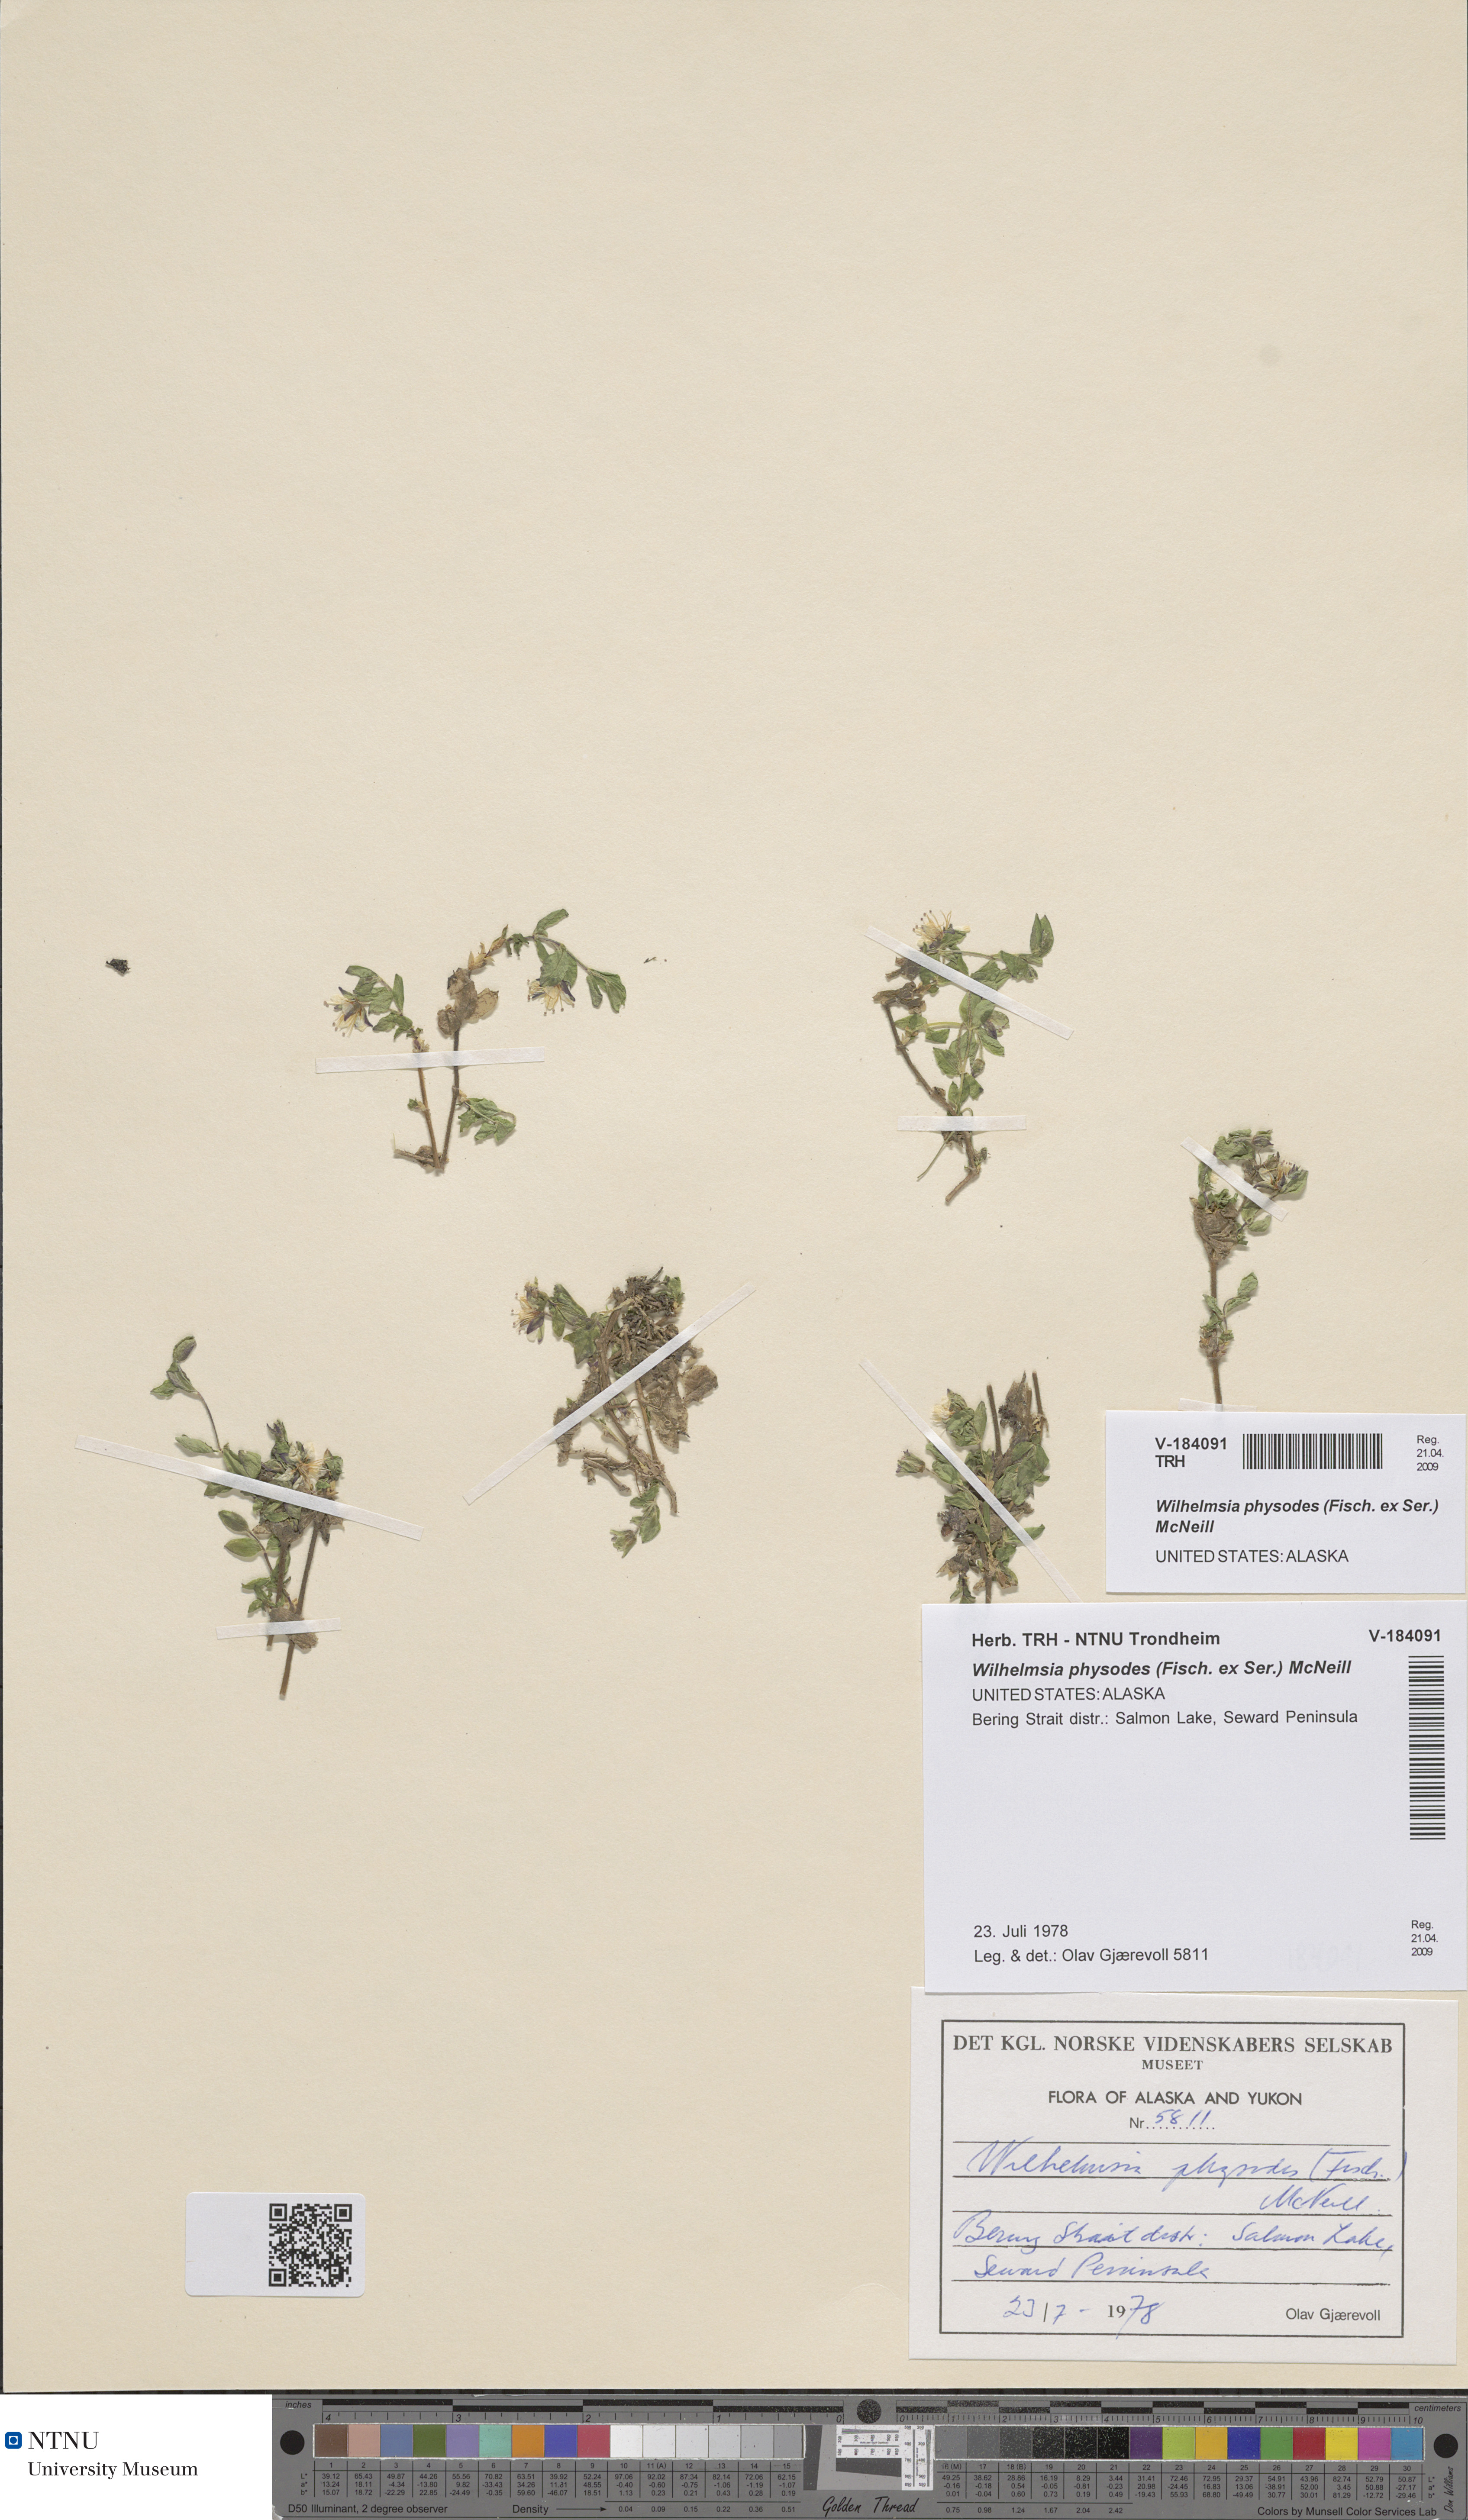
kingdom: Plantae
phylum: Tracheophyta
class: Magnoliopsida
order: Caryophyllales
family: Caryophyllaceae
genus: Wilhelmsia
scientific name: Wilhelmsia physodes
